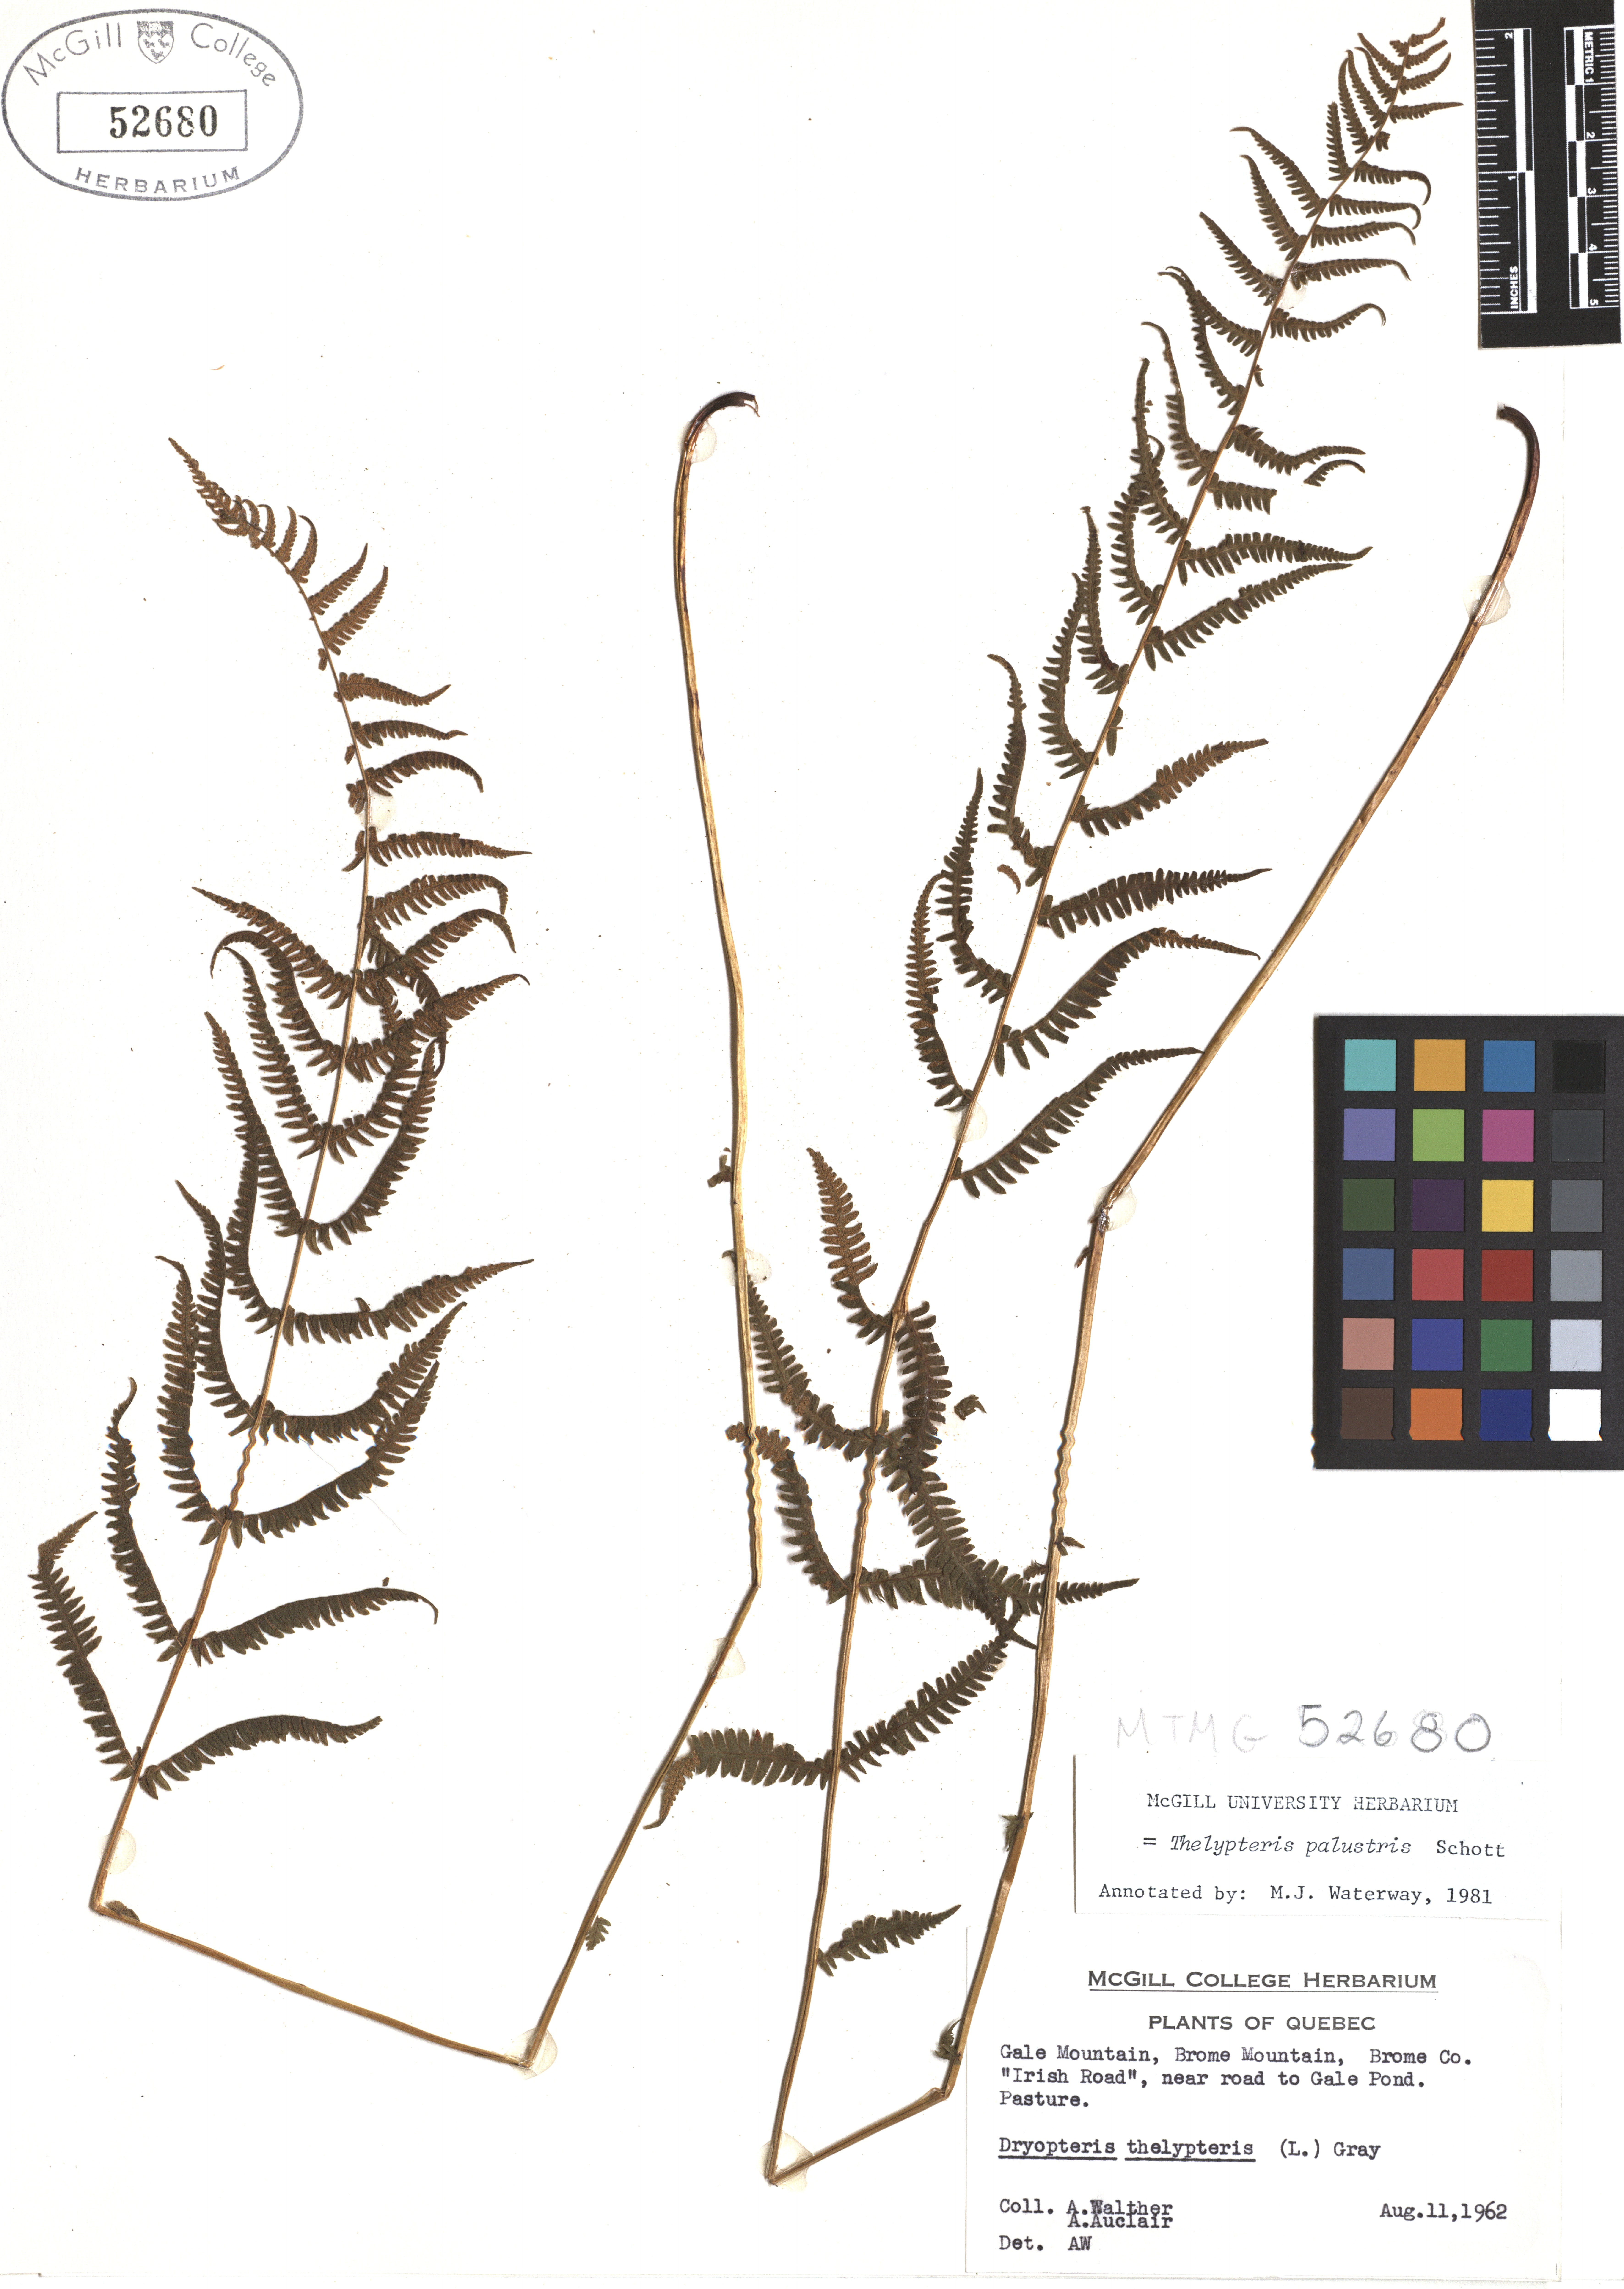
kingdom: Plantae
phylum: Tracheophyta
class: Polypodiopsida
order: Polypodiales
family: Thelypteridaceae
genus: Thelypteris
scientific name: Thelypteris palustris
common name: Marsh fern
